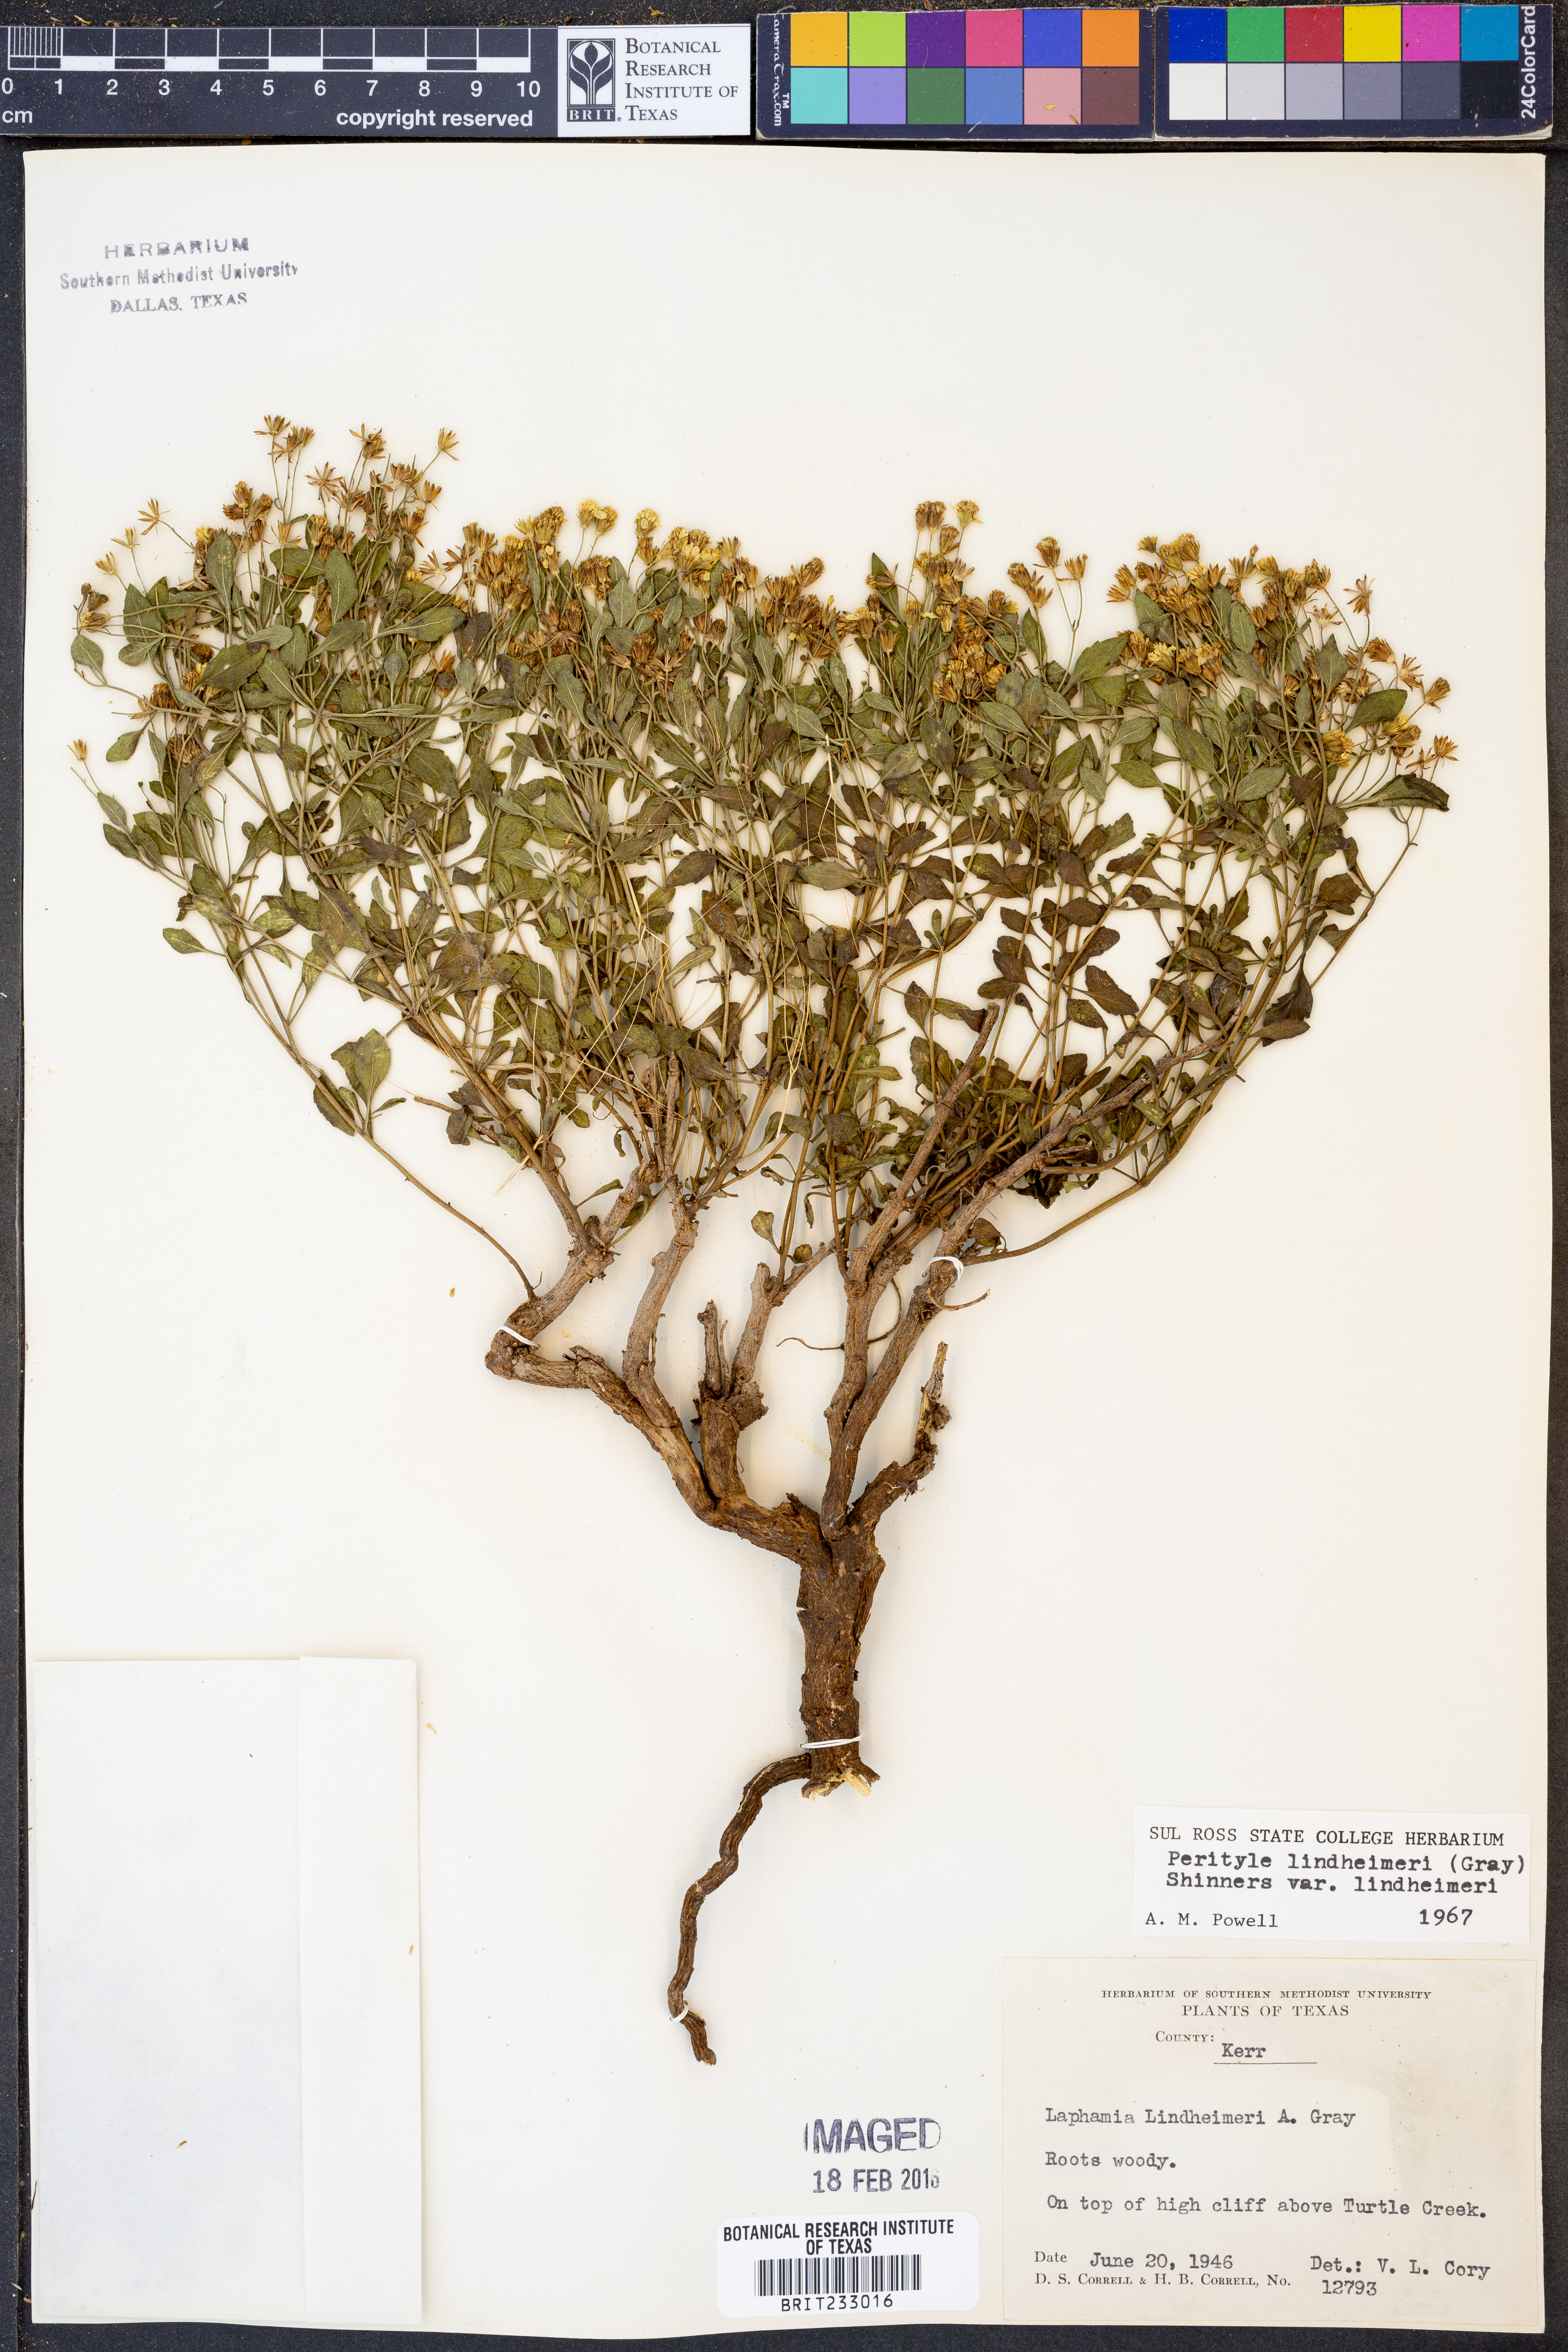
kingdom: Plantae
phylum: Tracheophyta
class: Magnoliopsida
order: Asterales
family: Asteraceae
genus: Laphamia
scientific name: Laphamia lindheimeri
